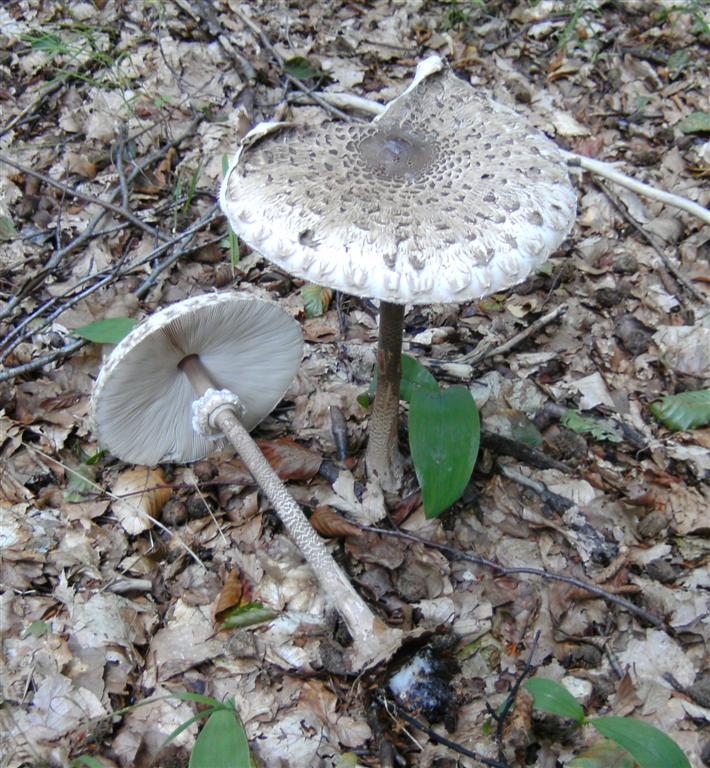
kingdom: Fungi
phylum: Basidiomycota
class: Agaricomycetes
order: Agaricales
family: Agaricaceae
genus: Macrolepiota
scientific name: Macrolepiota procera
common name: stor kæmpeparasolhat
